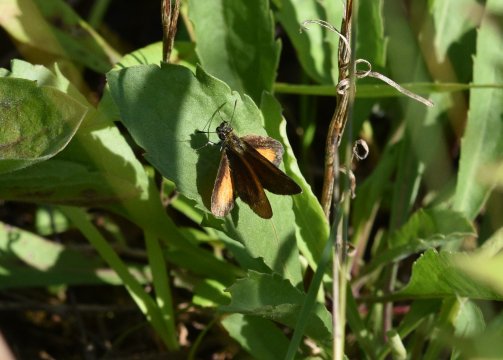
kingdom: Animalia
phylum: Arthropoda
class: Insecta
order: Lepidoptera
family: Hesperiidae
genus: Ancyloxypha
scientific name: Ancyloxypha numitor
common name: Least Skipper
